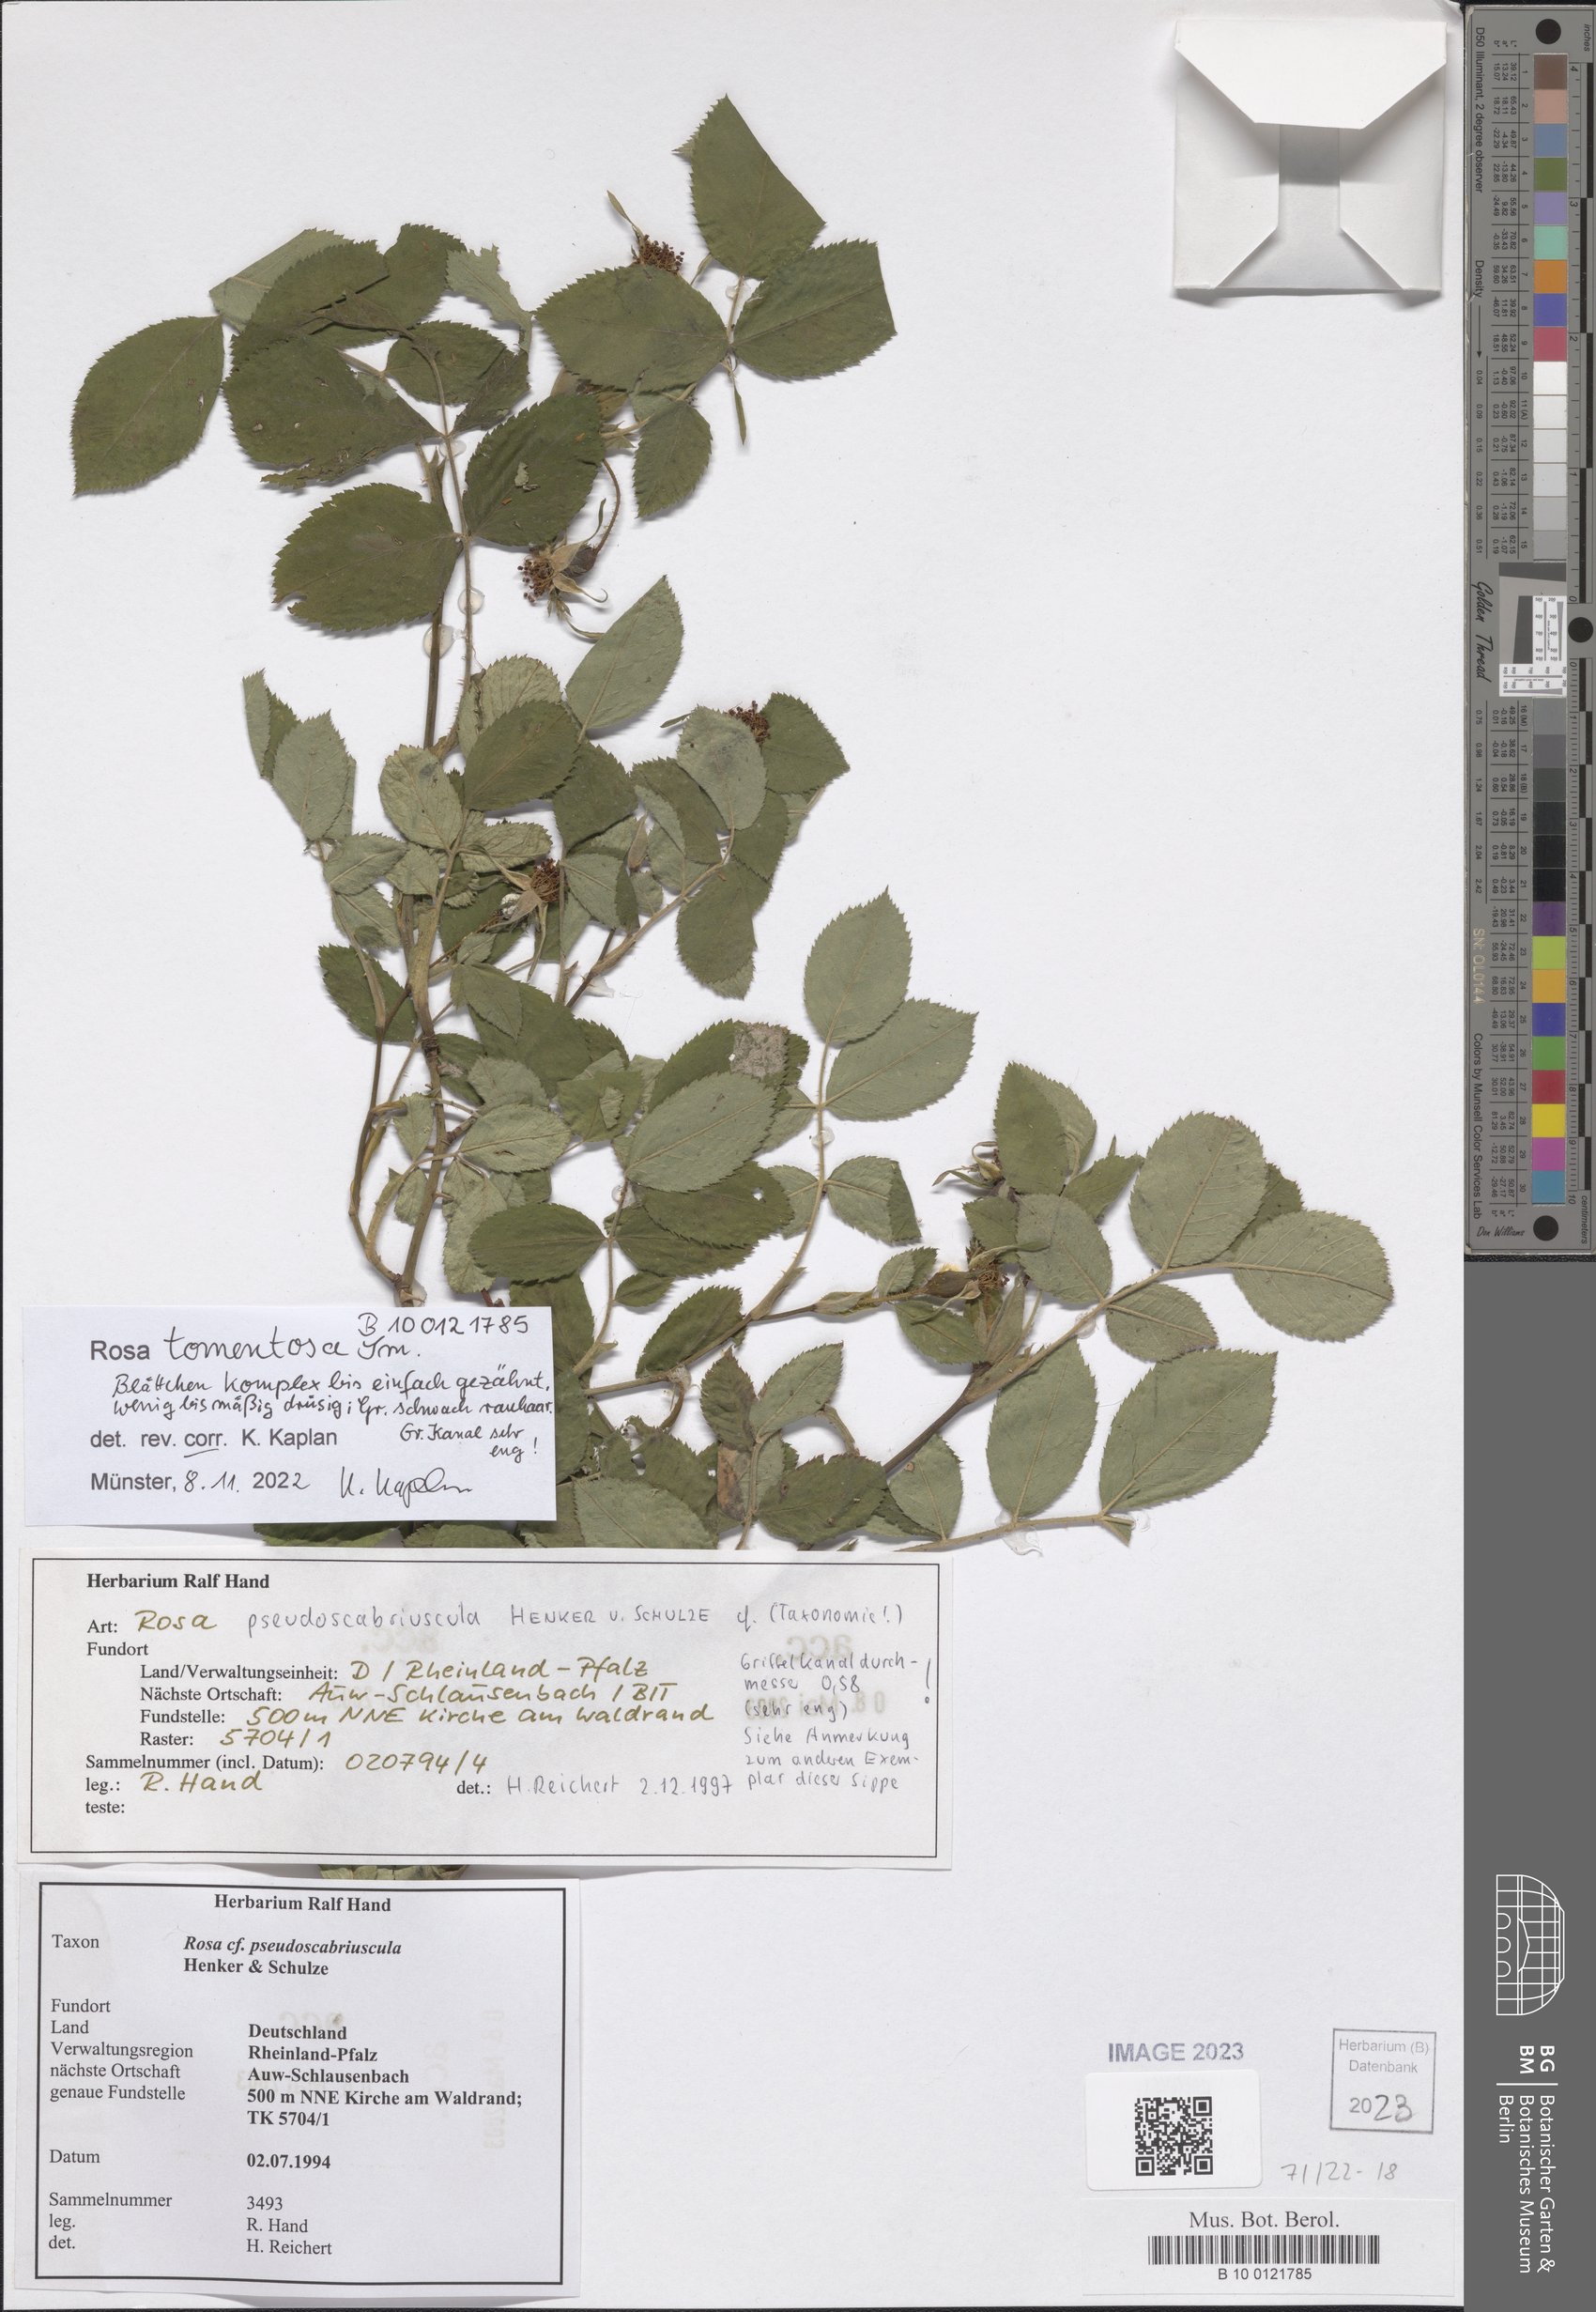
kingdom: Plantae
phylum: Tracheophyta
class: Magnoliopsida
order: Rosales
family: Rosaceae
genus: Rosa
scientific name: Rosa tomentosa
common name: Downy rose
